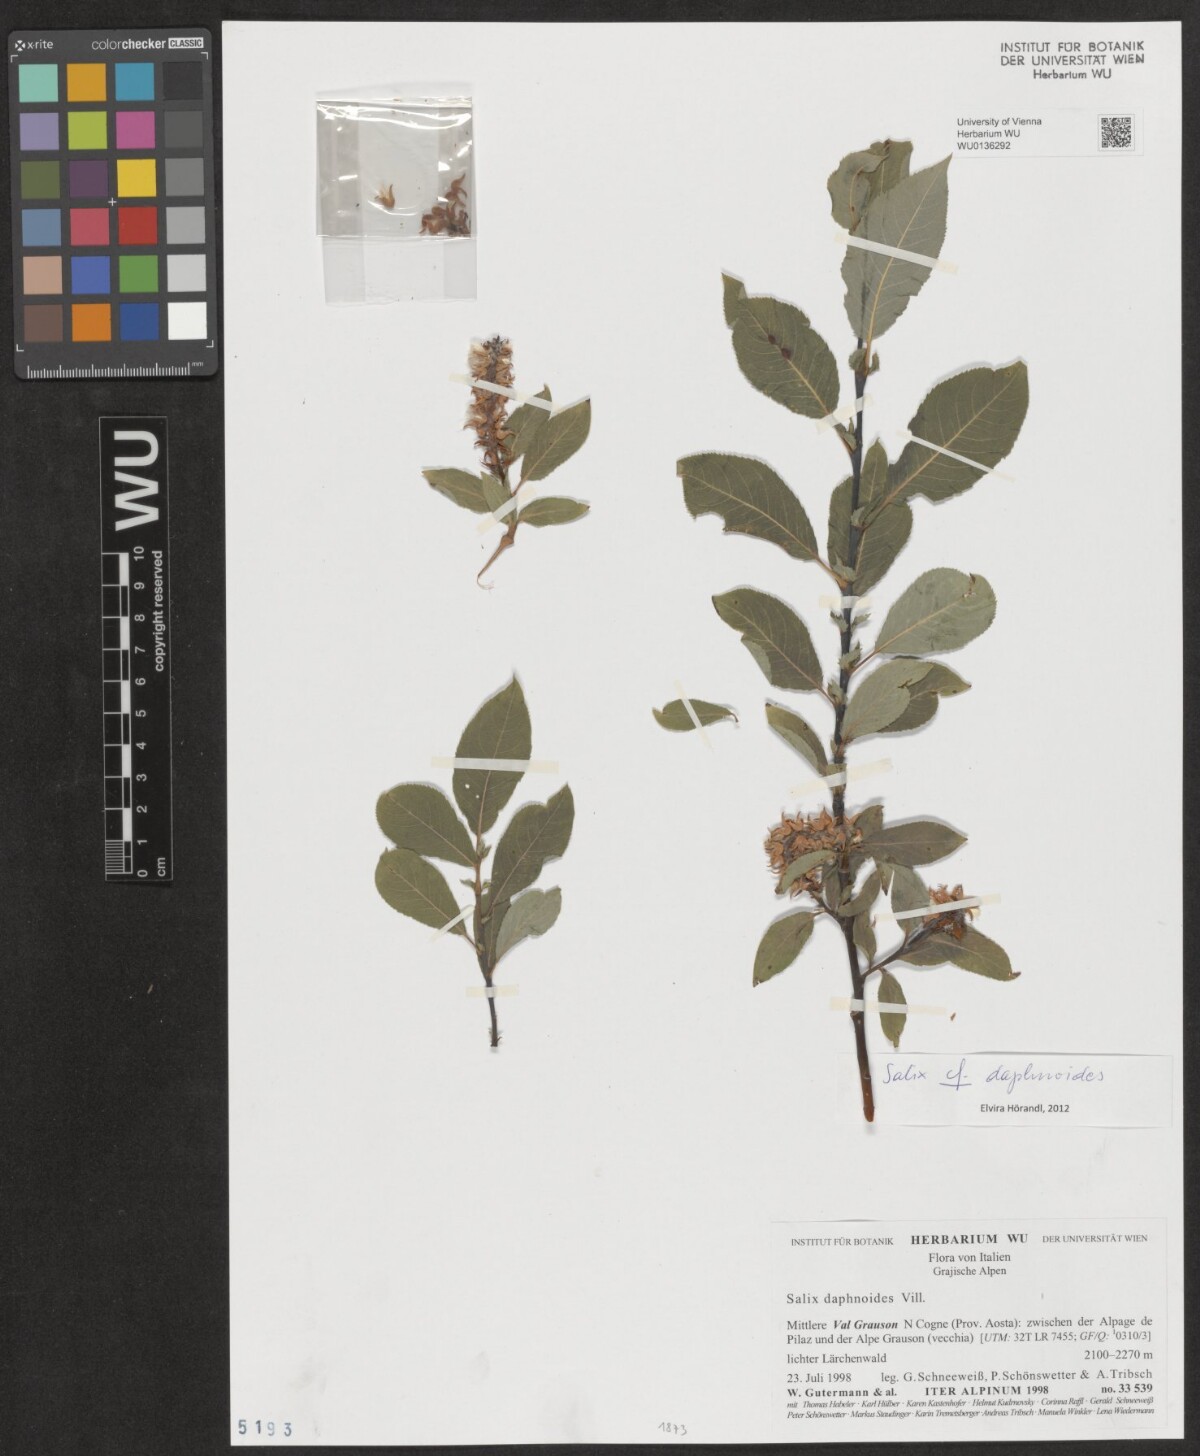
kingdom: Plantae
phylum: Tracheophyta
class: Magnoliopsida
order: Malpighiales
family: Salicaceae
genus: Salix
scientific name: Salix daphnoides
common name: European violet-willow
